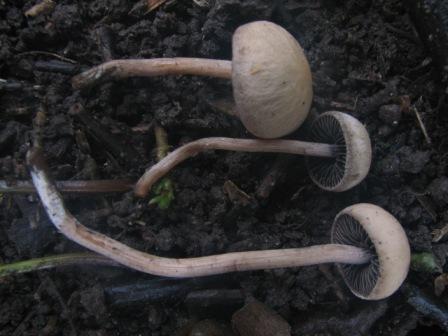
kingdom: Fungi
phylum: Basidiomycota
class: Agaricomycetes
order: Agaricales
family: Bolbitiaceae
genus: Panaeolus
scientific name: Panaeolus subfirmus
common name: fælled-glanshat
